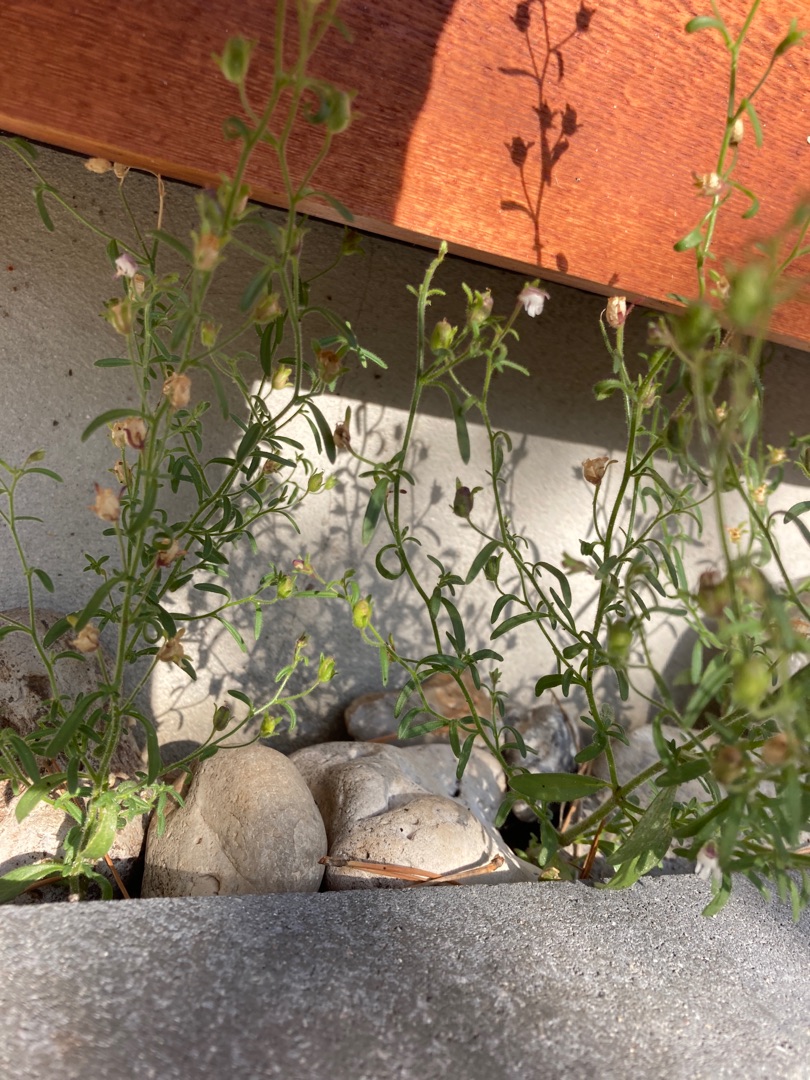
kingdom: Plantae
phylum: Tracheophyta
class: Magnoliopsida
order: Lamiales
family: Plantaginaceae
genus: Chaenorhinum
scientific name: Chaenorhinum minus
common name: Liden torskemund
